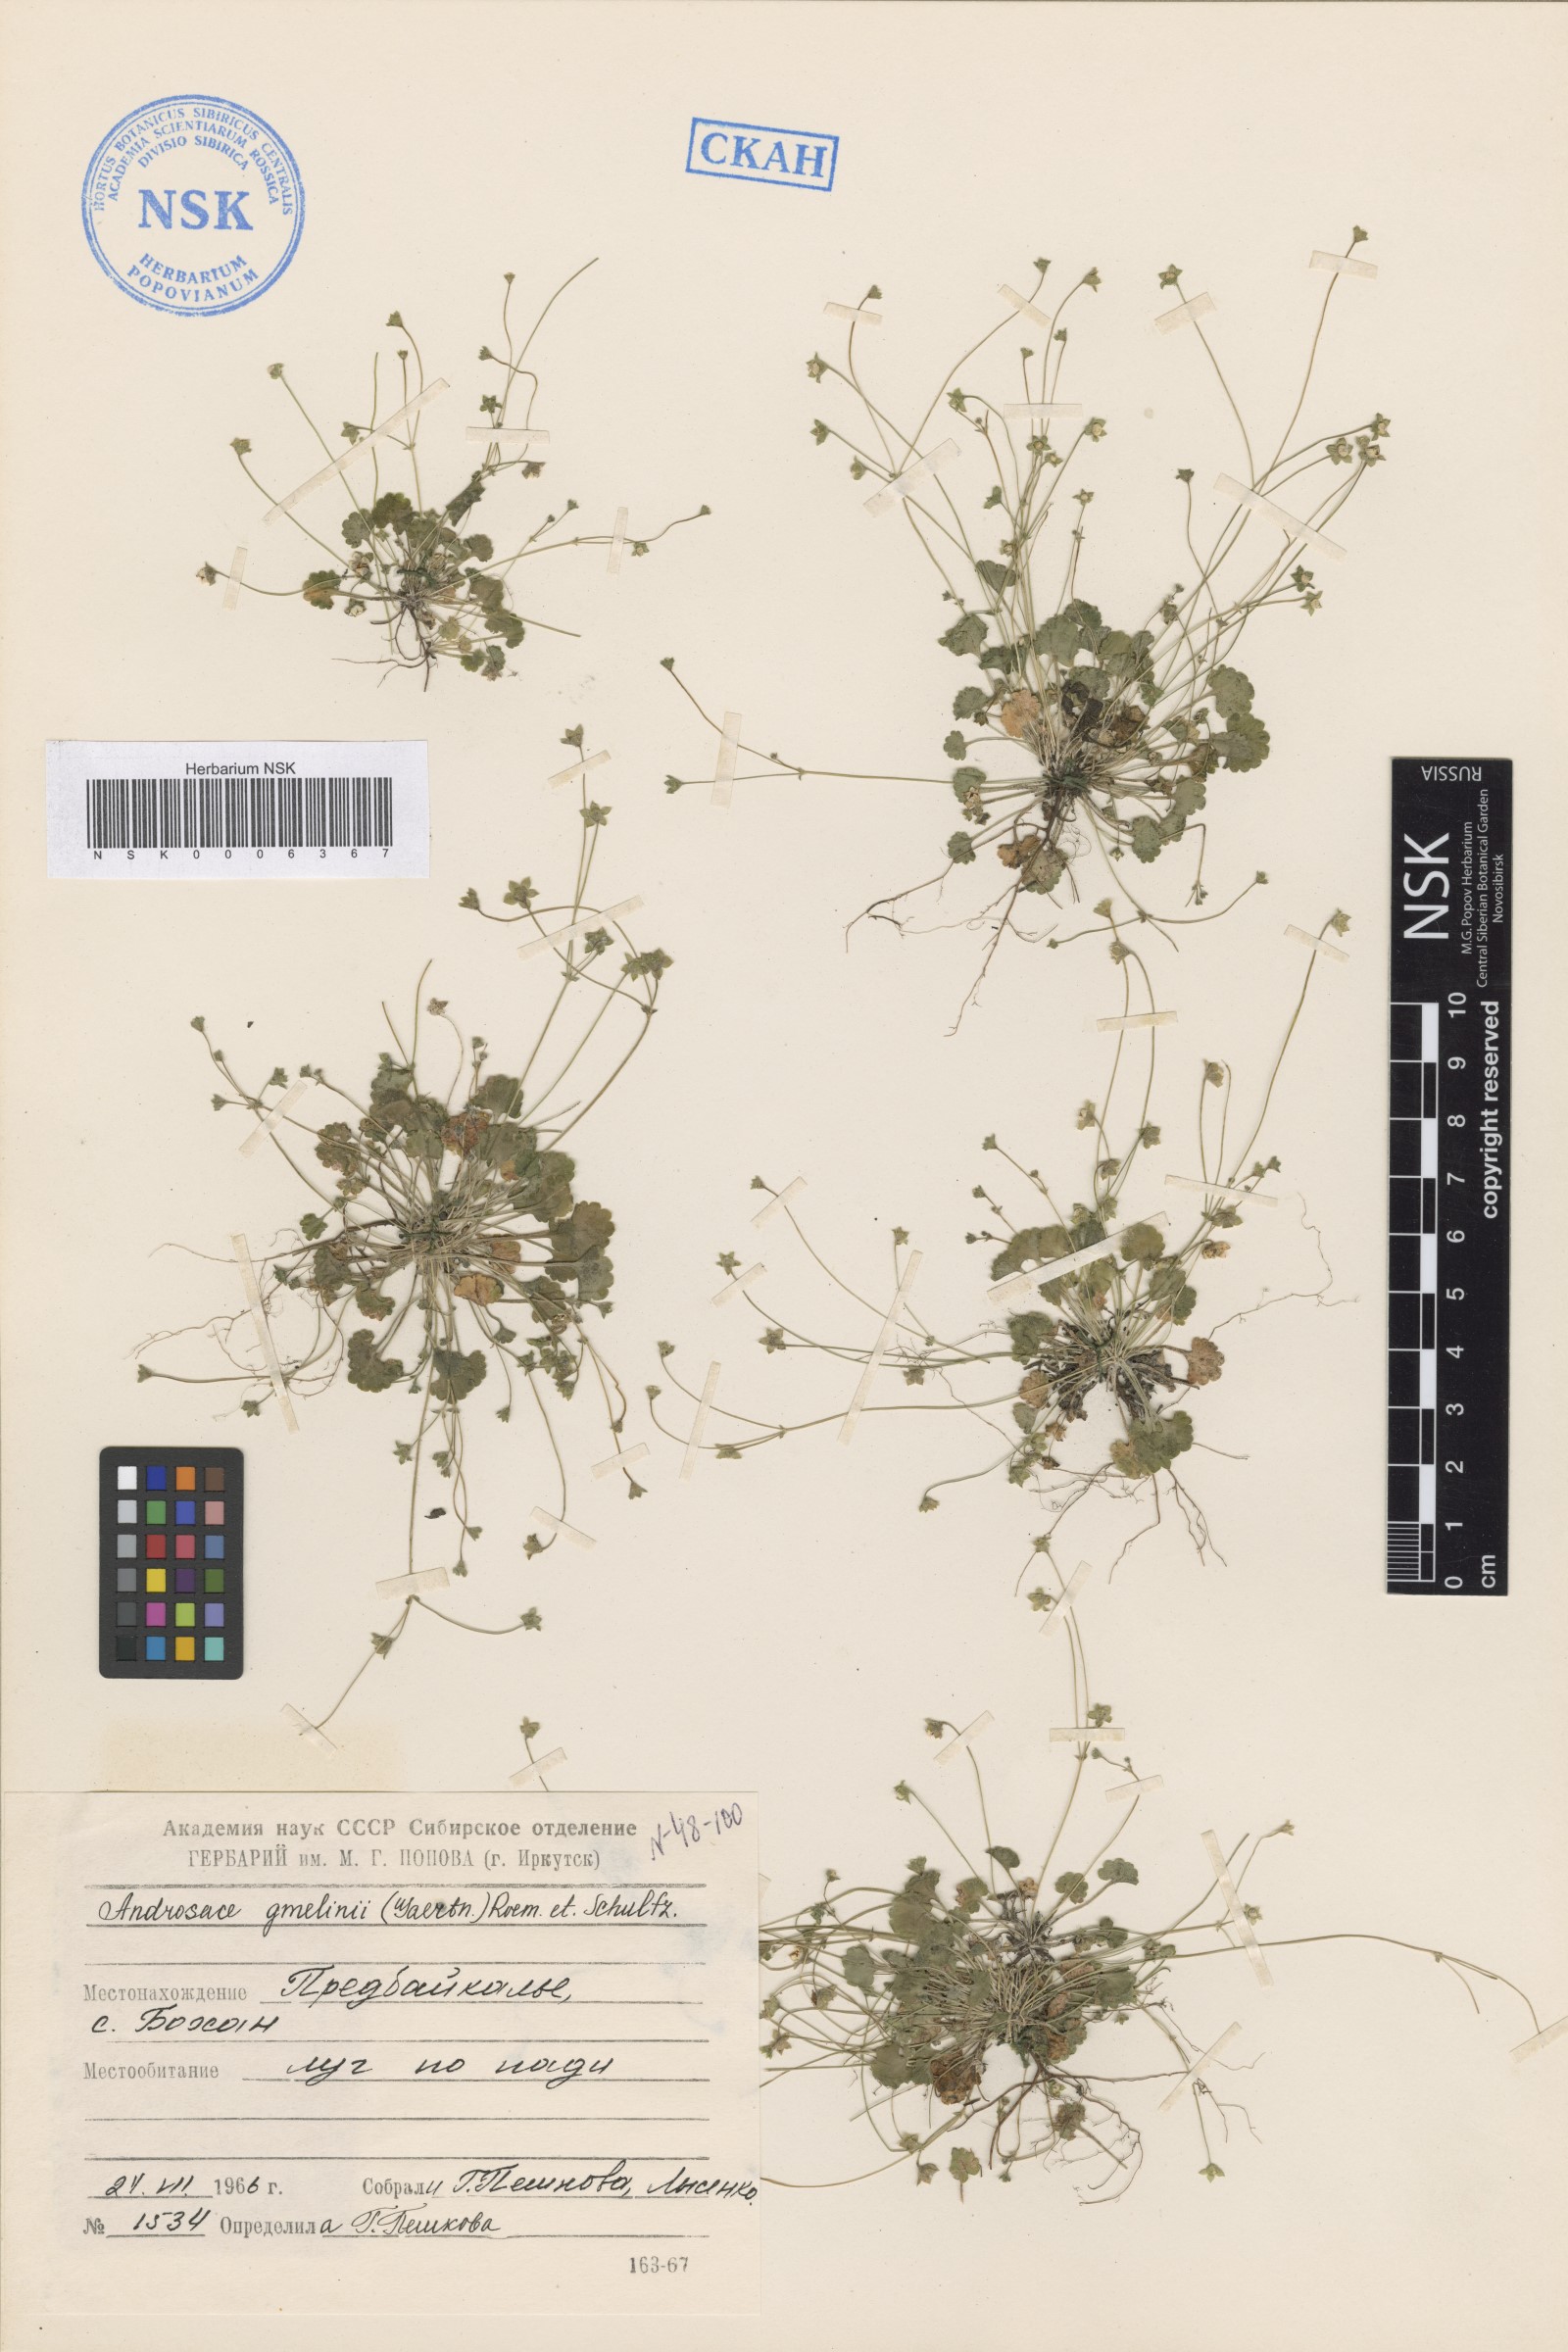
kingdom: Plantae
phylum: Tracheophyta
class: Magnoliopsida
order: Ericales
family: Primulaceae
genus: Androsace
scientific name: Androsace gmelinii
